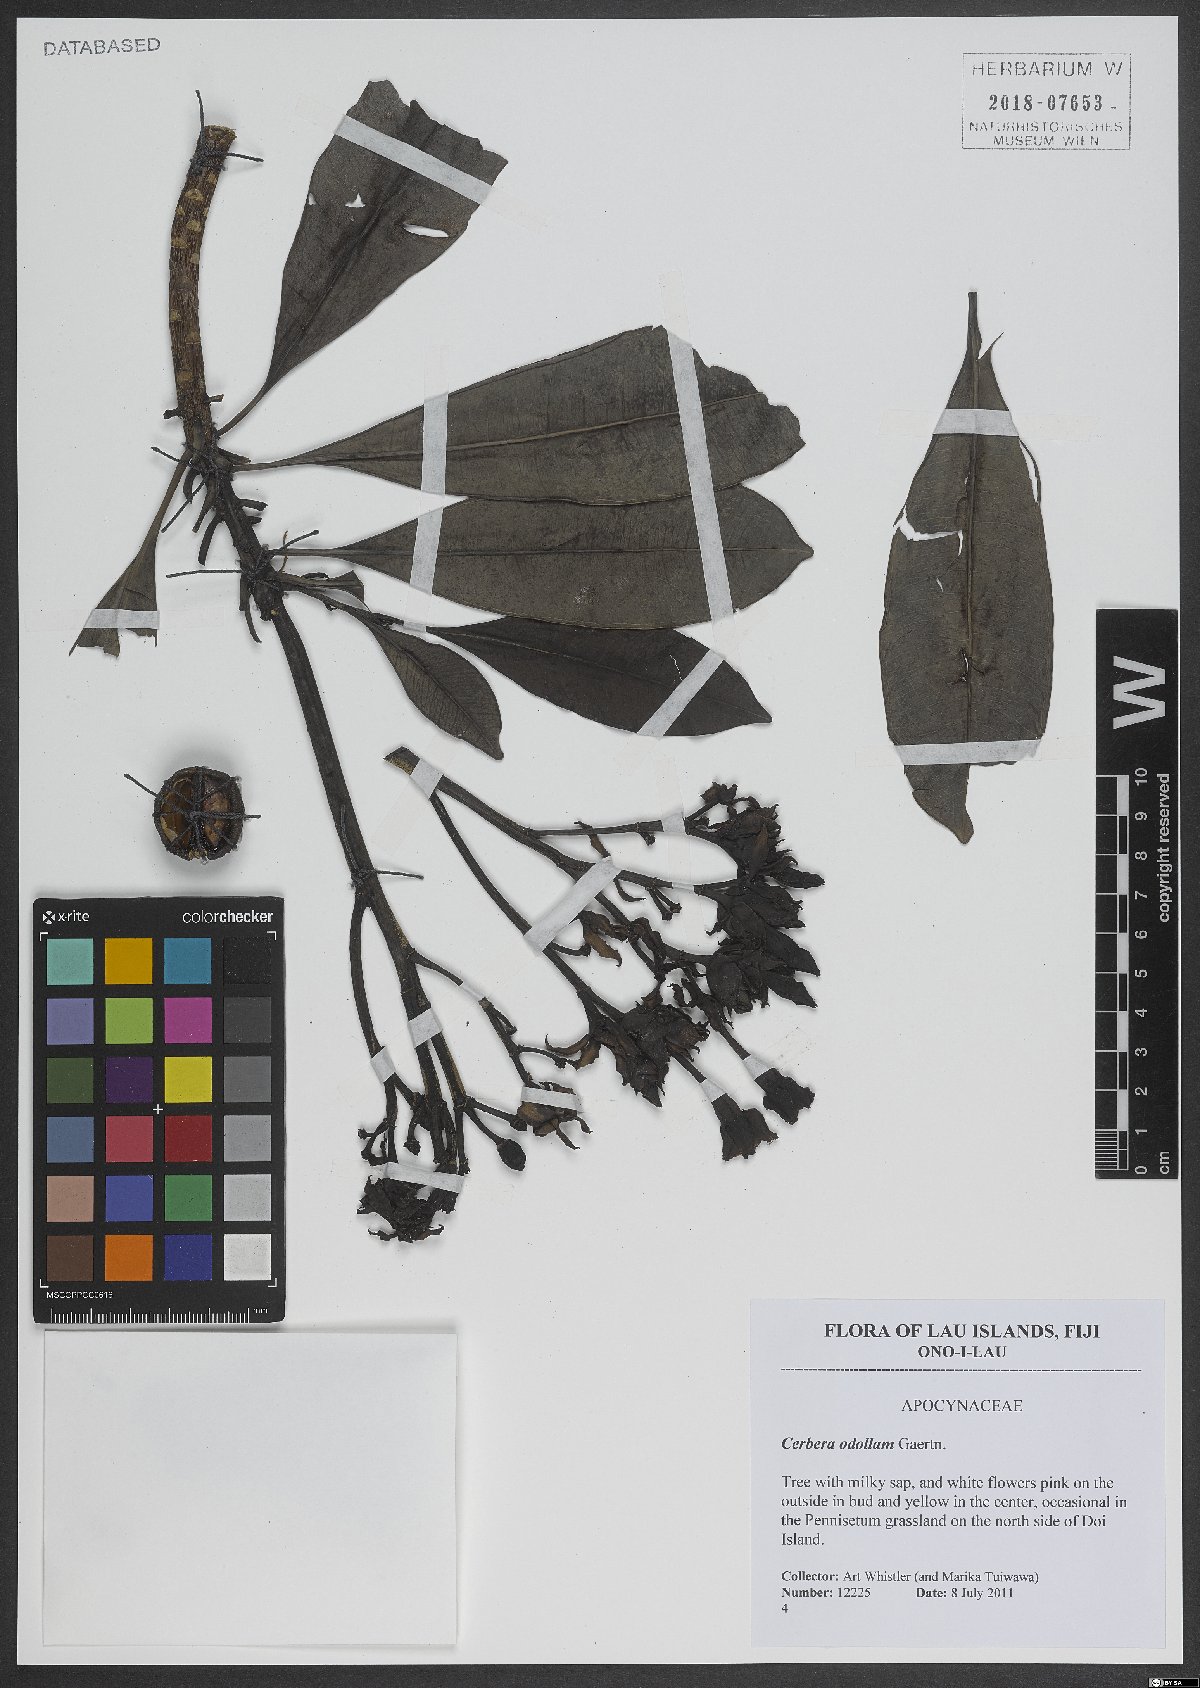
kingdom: Plantae
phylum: Tracheophyta
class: Magnoliopsida
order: Gentianales
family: Apocynaceae
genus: Cerbera
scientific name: Cerbera odollam
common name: Pong-pong
